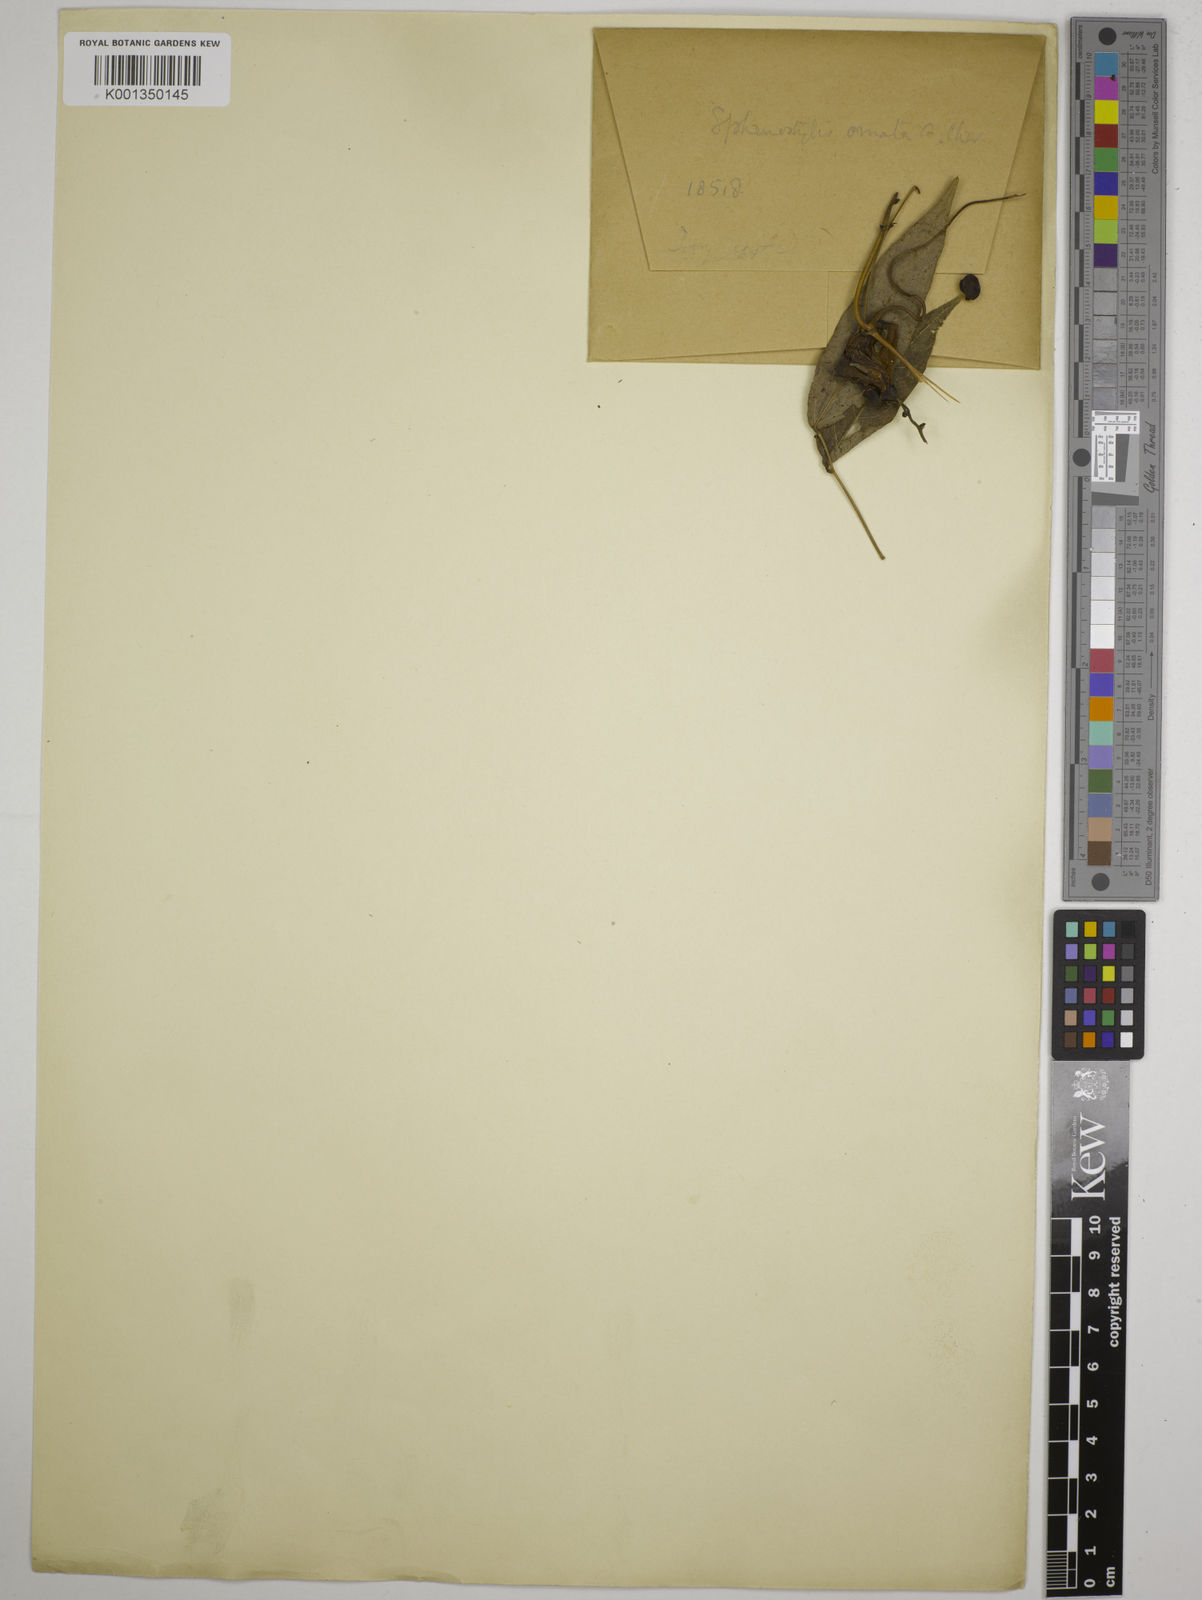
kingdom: Plantae
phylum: Tracheophyta
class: Magnoliopsida
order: Fabales
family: Fabaceae
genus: Sphenostylis
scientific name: Sphenostylis stenocarpa
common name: Yam-pea
